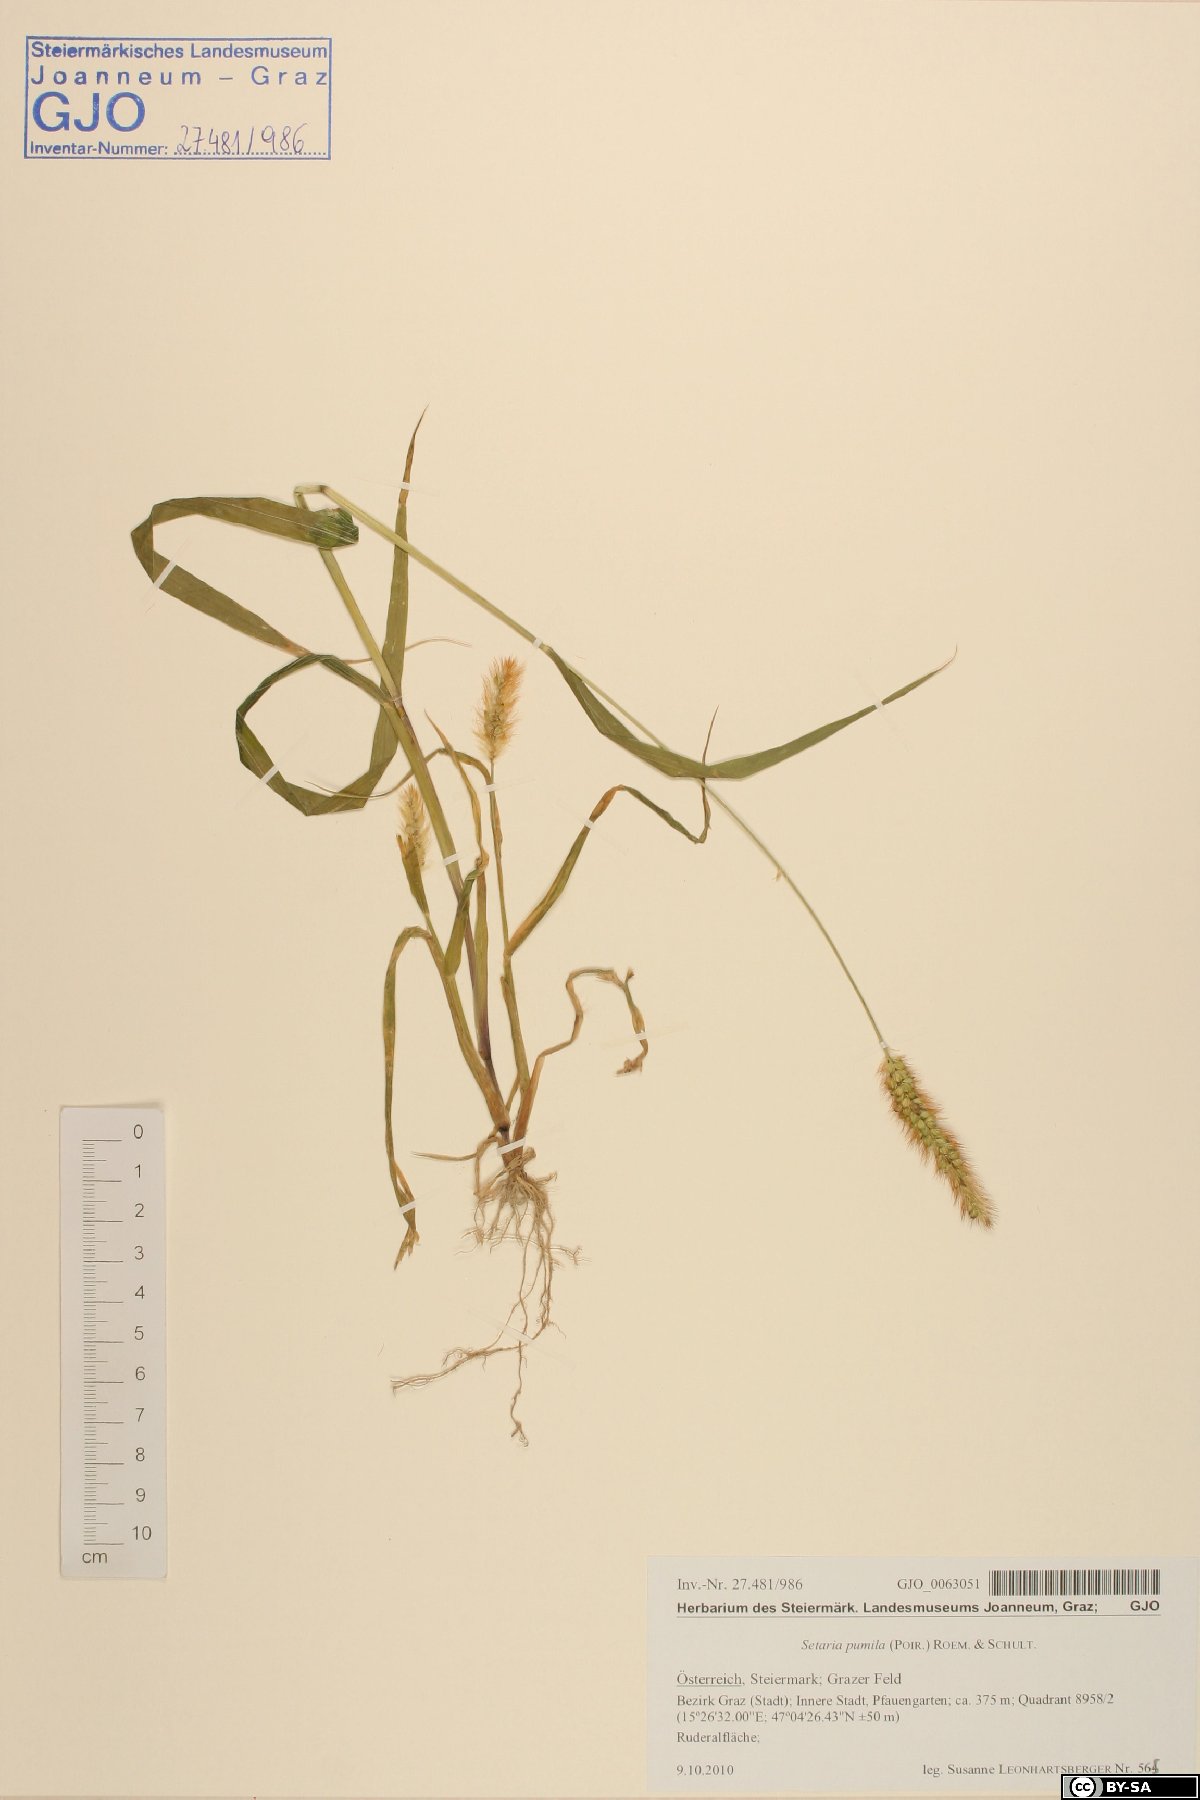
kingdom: Plantae
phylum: Tracheophyta
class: Liliopsida
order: Poales
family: Poaceae
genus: Setaria
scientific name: Setaria pumila
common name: Yellow bristle-grass
